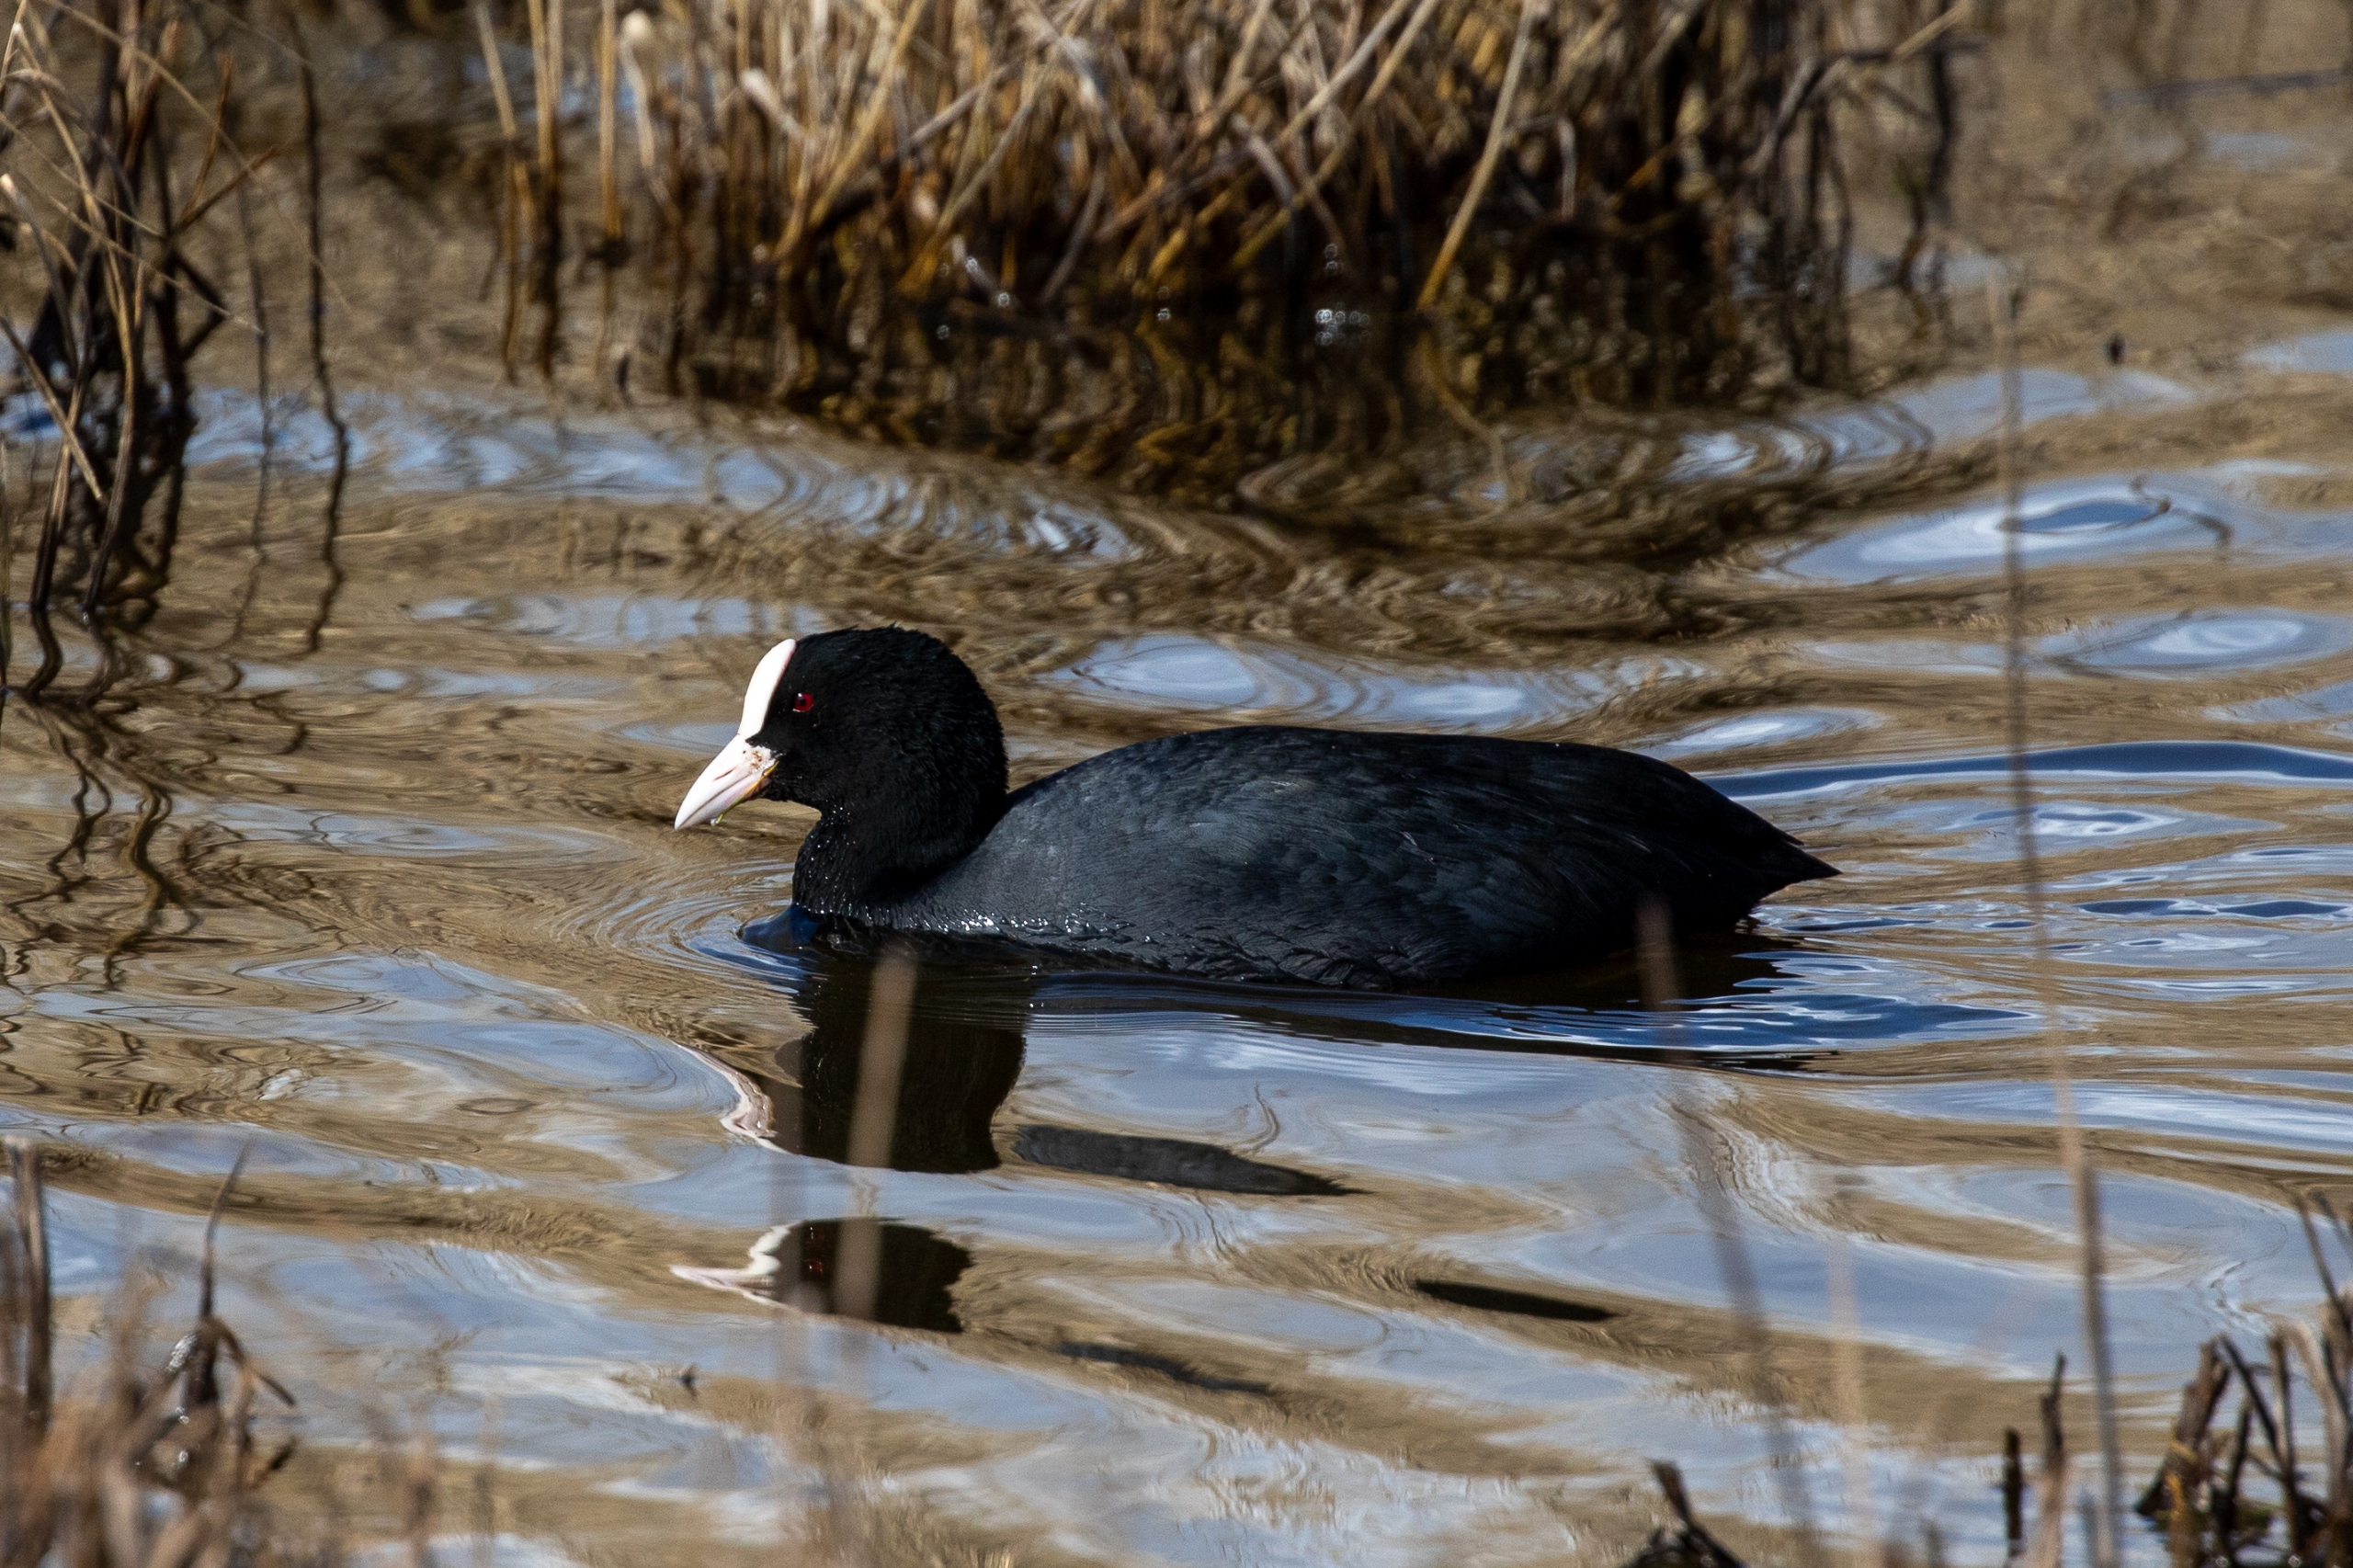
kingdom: Animalia
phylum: Chordata
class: Aves
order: Gruiformes
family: Rallidae
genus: Fulica
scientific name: Fulica atra
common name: Blishøne
